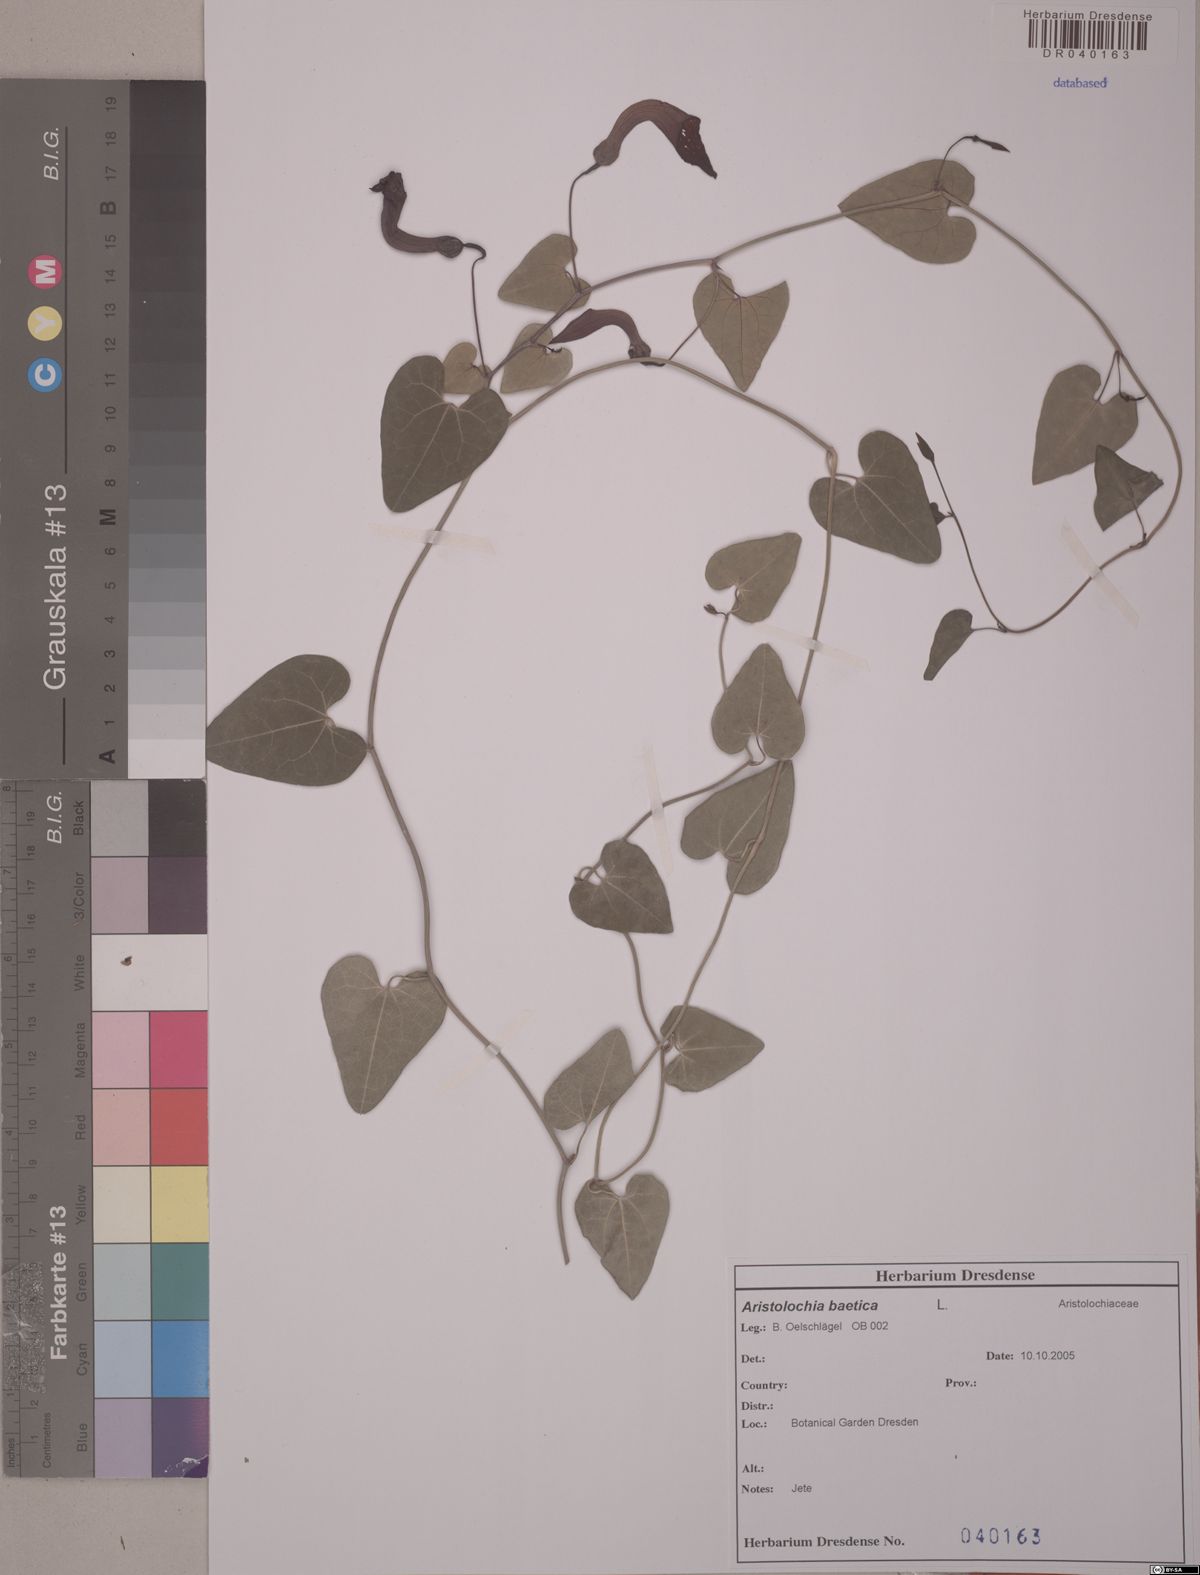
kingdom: Plantae
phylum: Tracheophyta
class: Magnoliopsida
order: Piperales
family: Aristolochiaceae
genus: Aristolochia
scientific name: Aristolochia baetica
